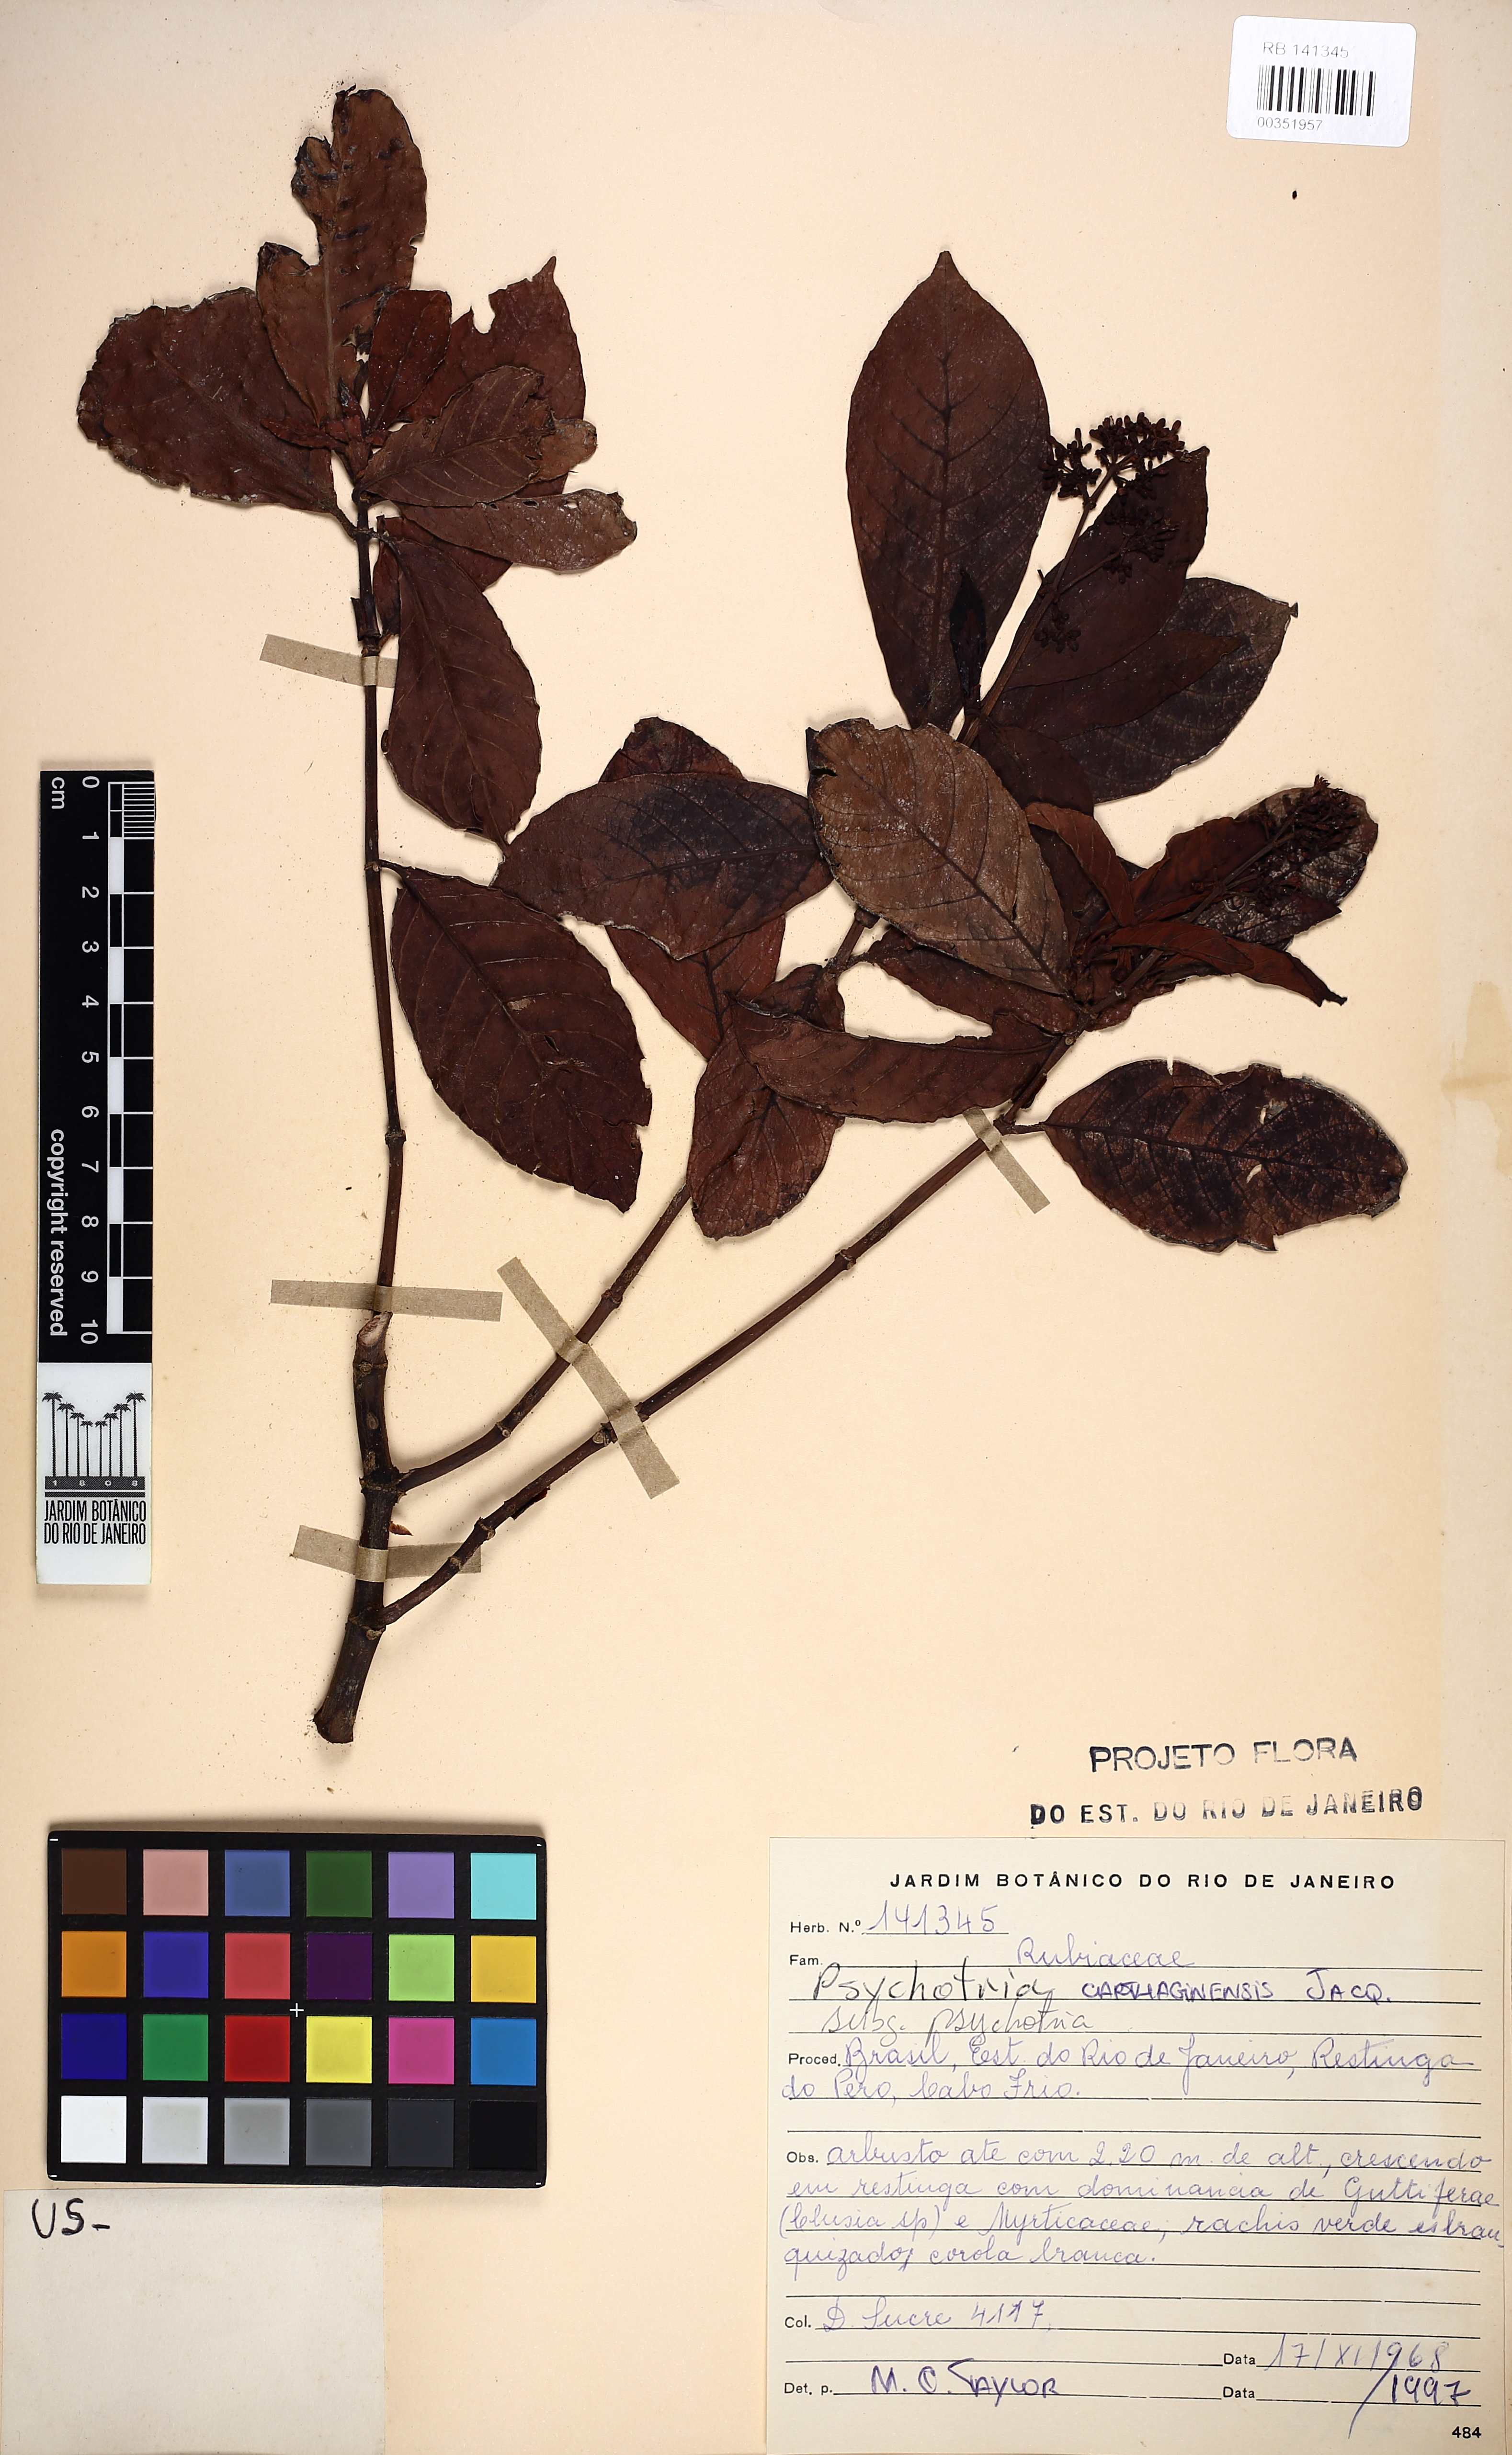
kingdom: Plantae
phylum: Tracheophyta
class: Magnoliopsida
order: Gentianales
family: Rubiaceae
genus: Psychotria
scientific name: Psychotria carthagenensis
